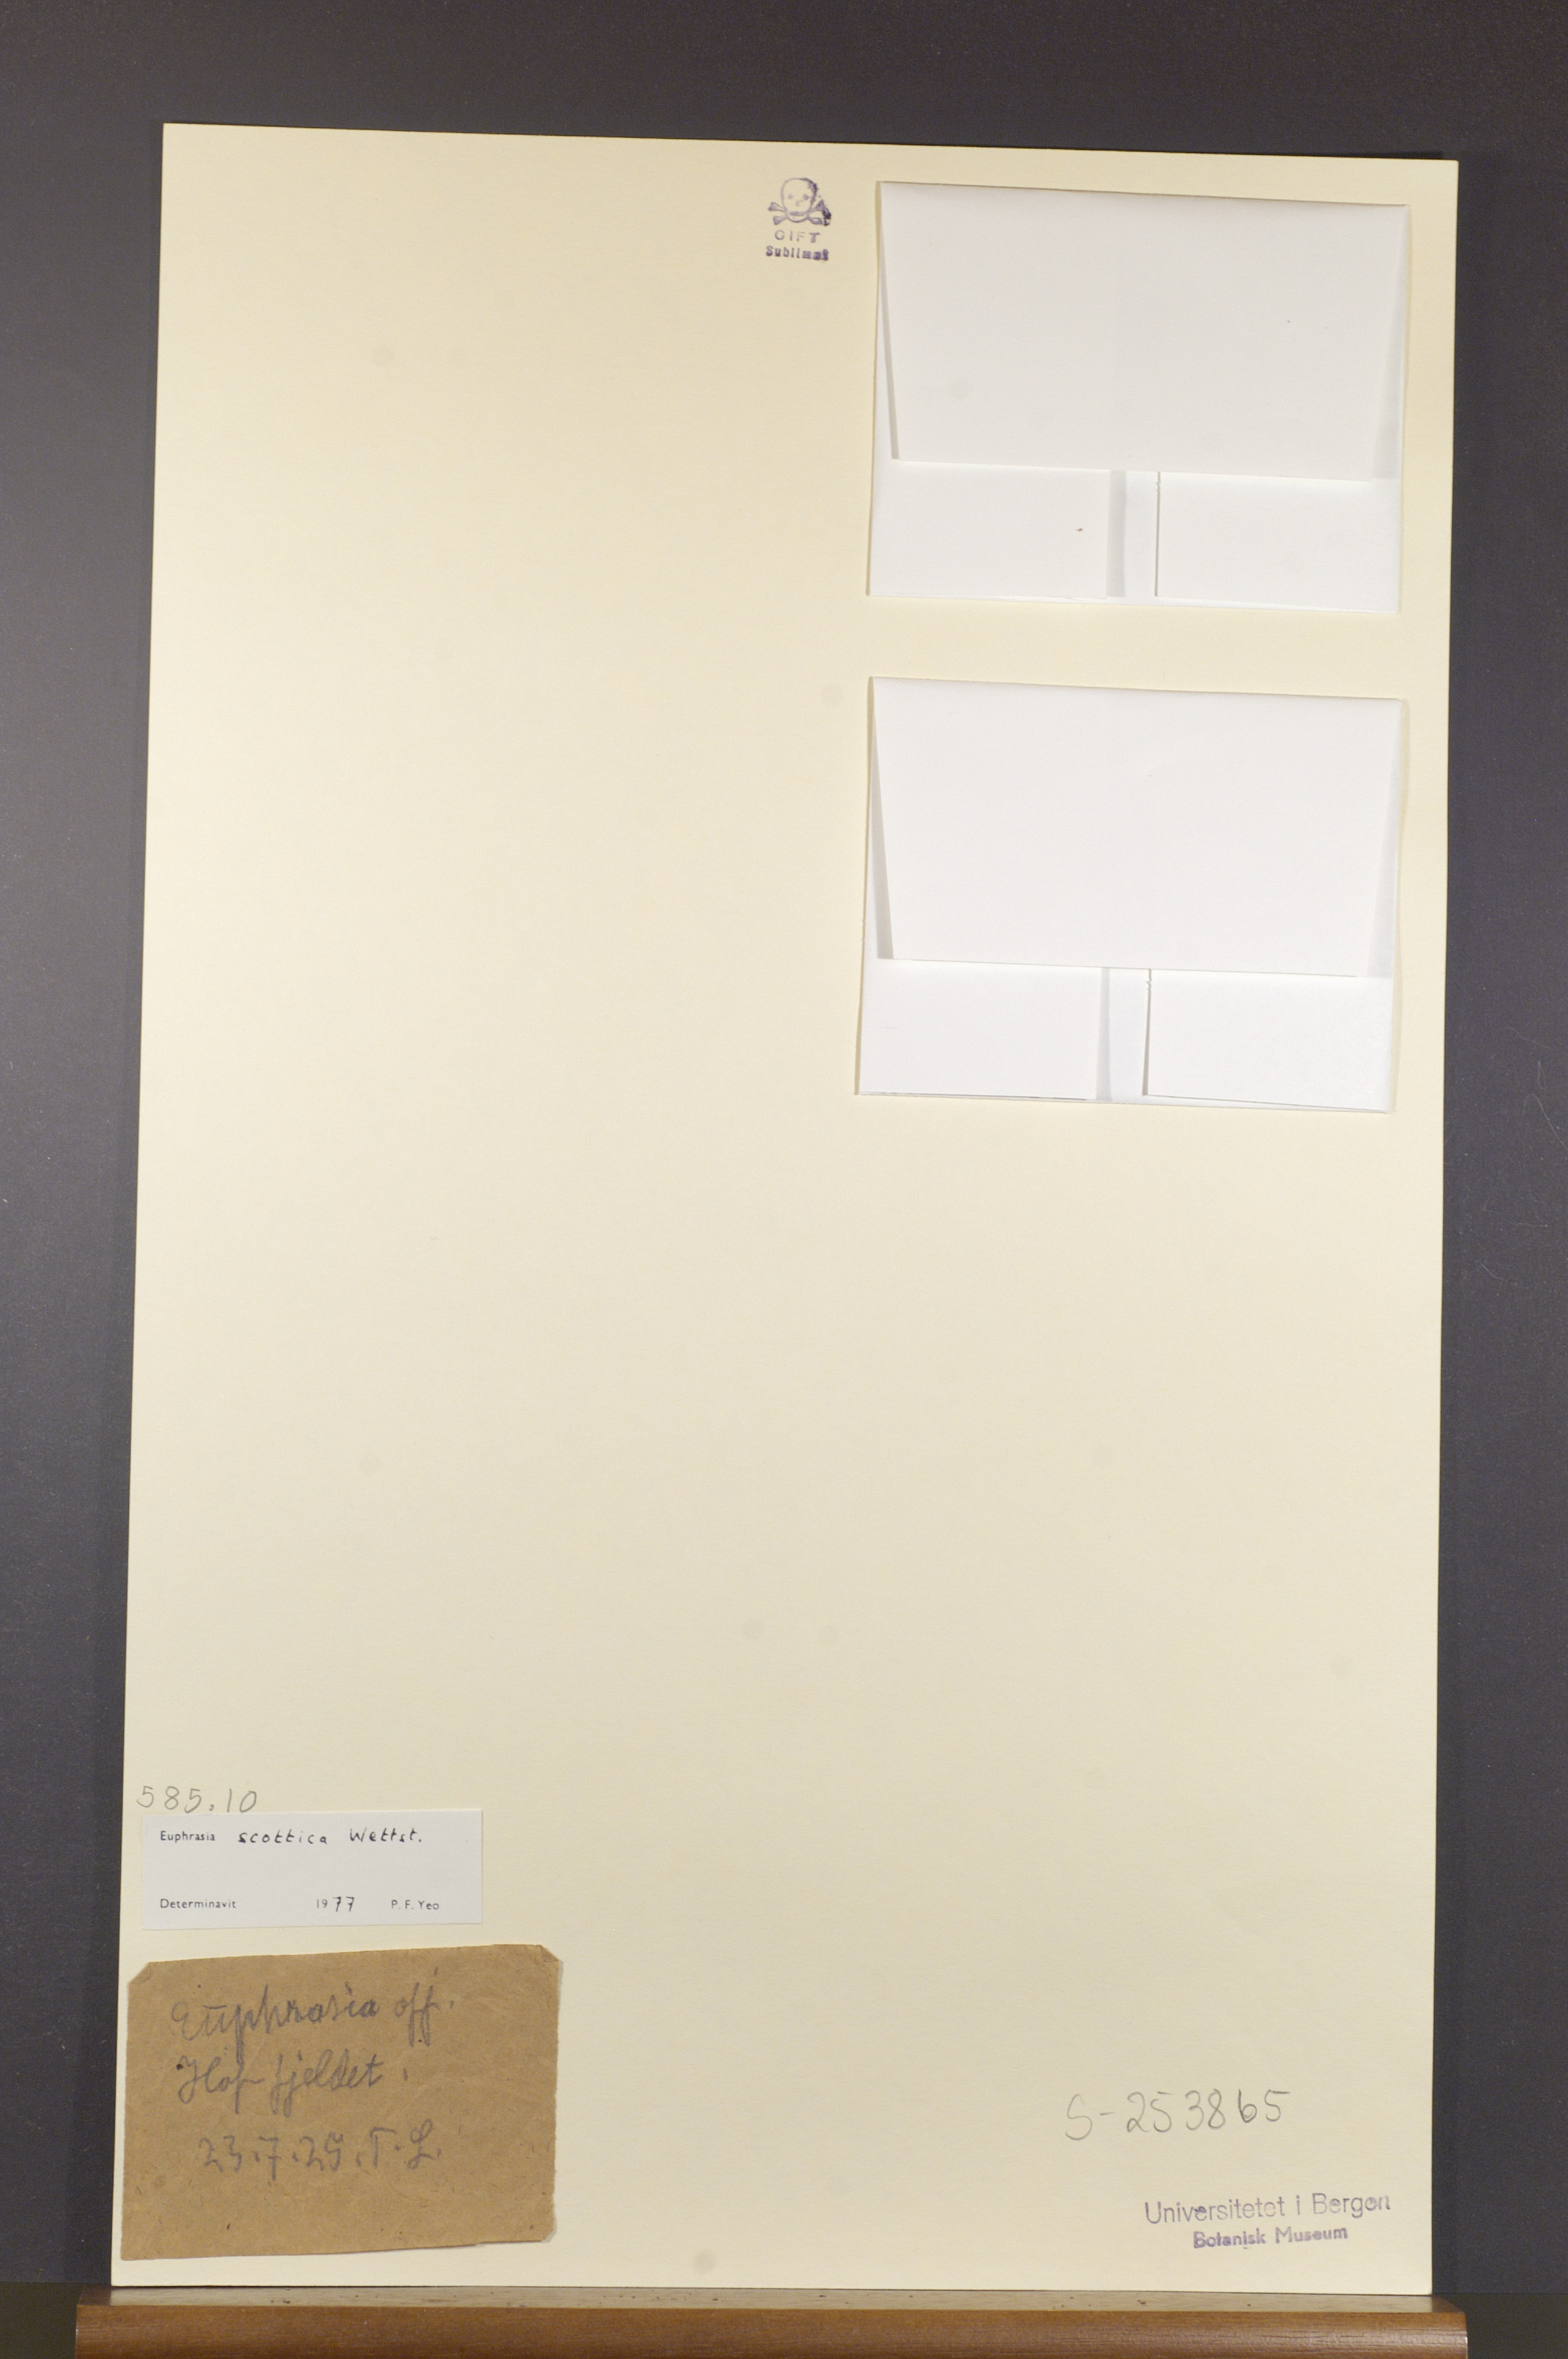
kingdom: Plantae
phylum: Tracheophyta
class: Magnoliopsida
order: Lamiales
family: Orobanchaceae
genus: Euphrasia
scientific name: Euphrasia scottica
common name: Slender scottish eyebright
